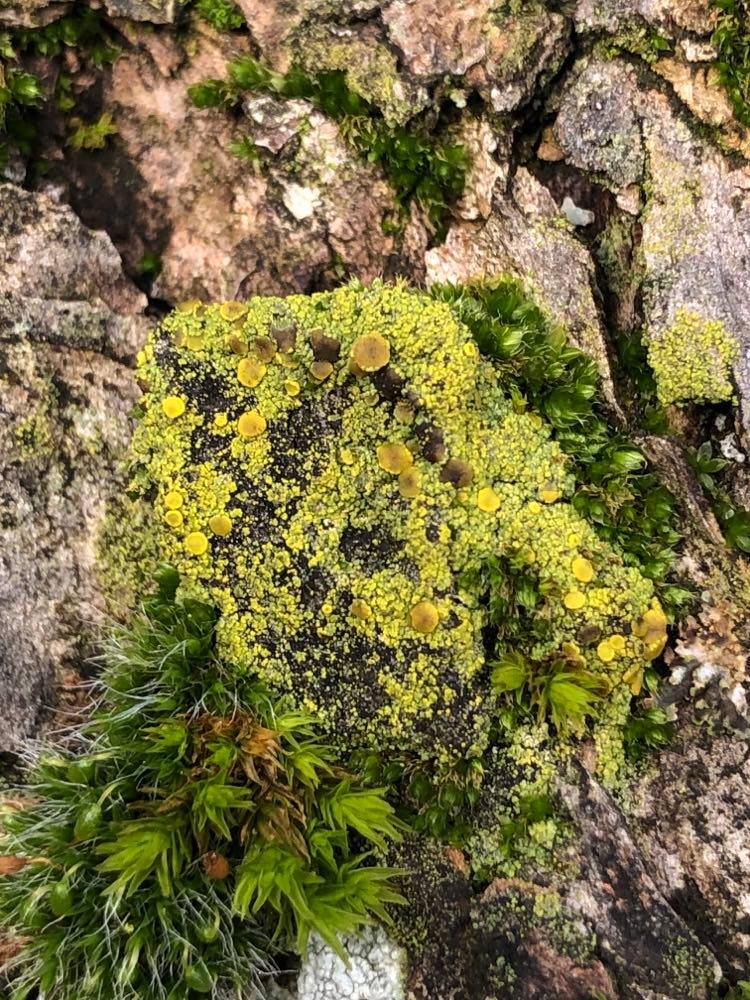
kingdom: Fungi
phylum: Ascomycota
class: Candelariomycetes
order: Candelariales
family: Candelariaceae
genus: Candelariella
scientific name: Candelariella vitellina
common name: almindelig æggeblommelav
